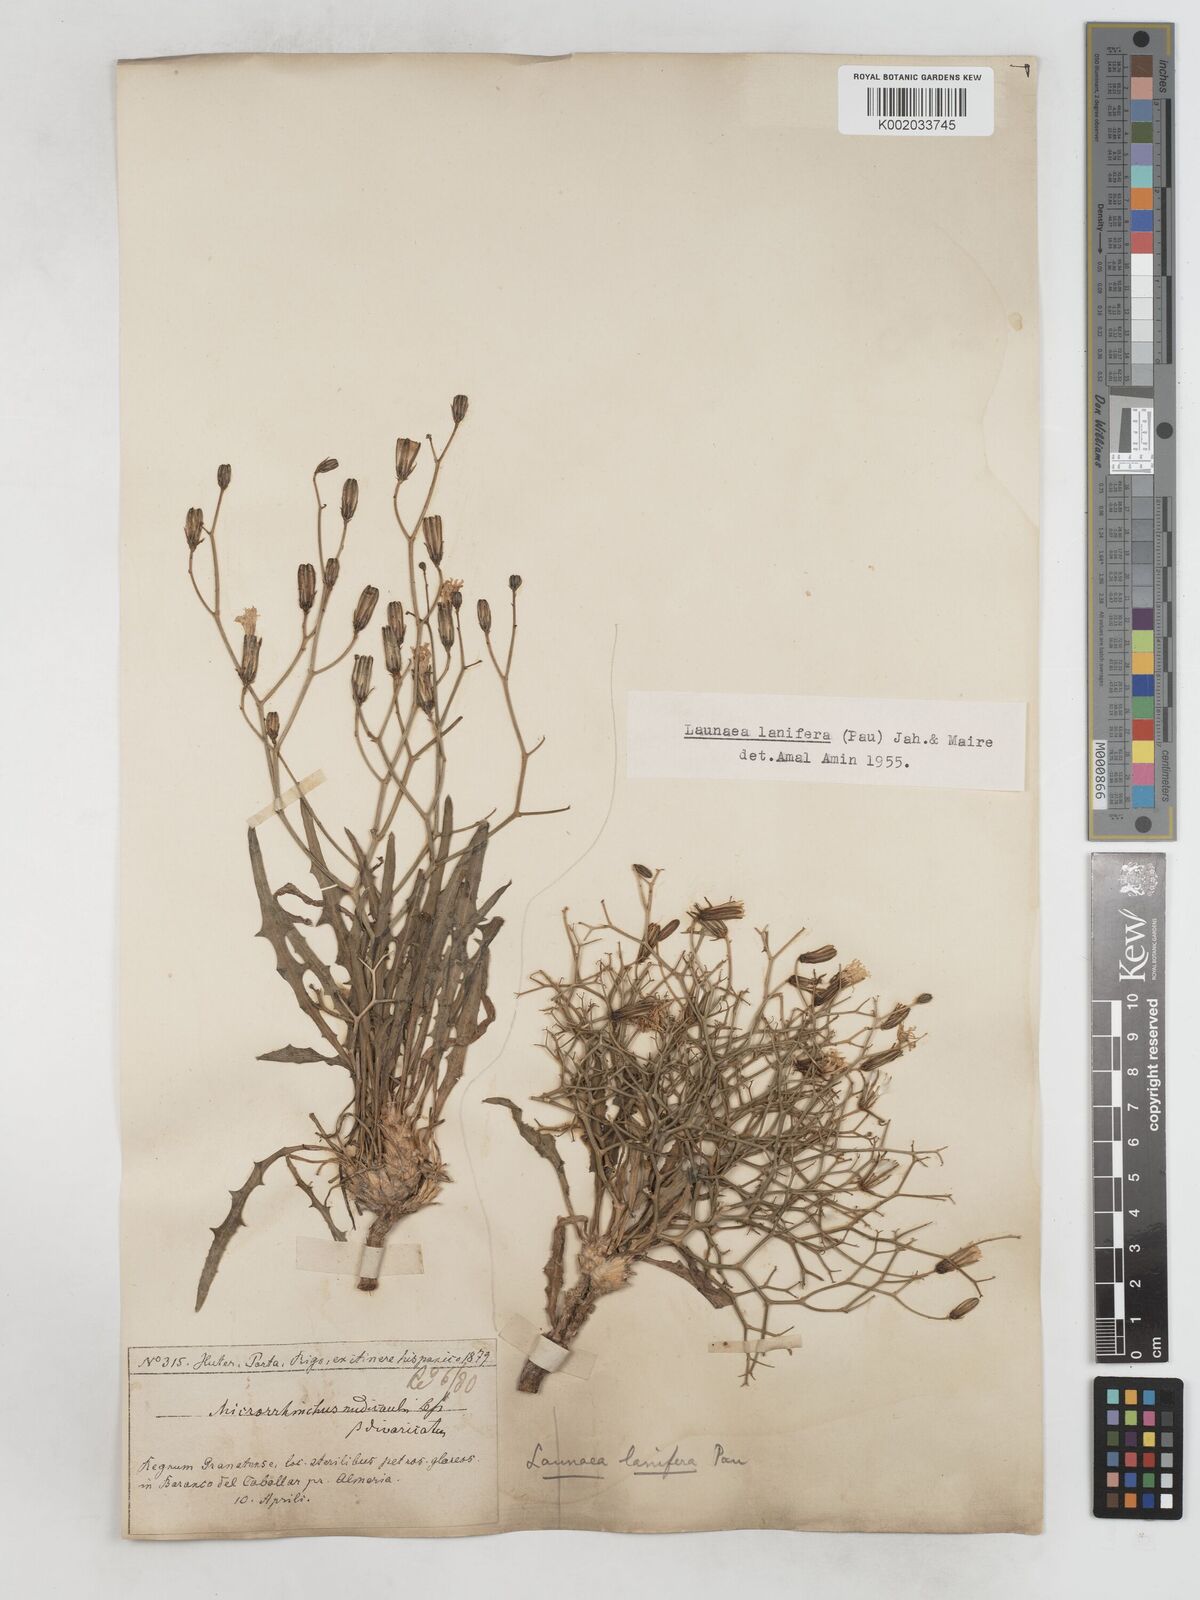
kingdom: Plantae
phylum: Tracheophyta
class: Magnoliopsida
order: Asterales
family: Asteraceae
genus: Launaea
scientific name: Launaea lanifera
